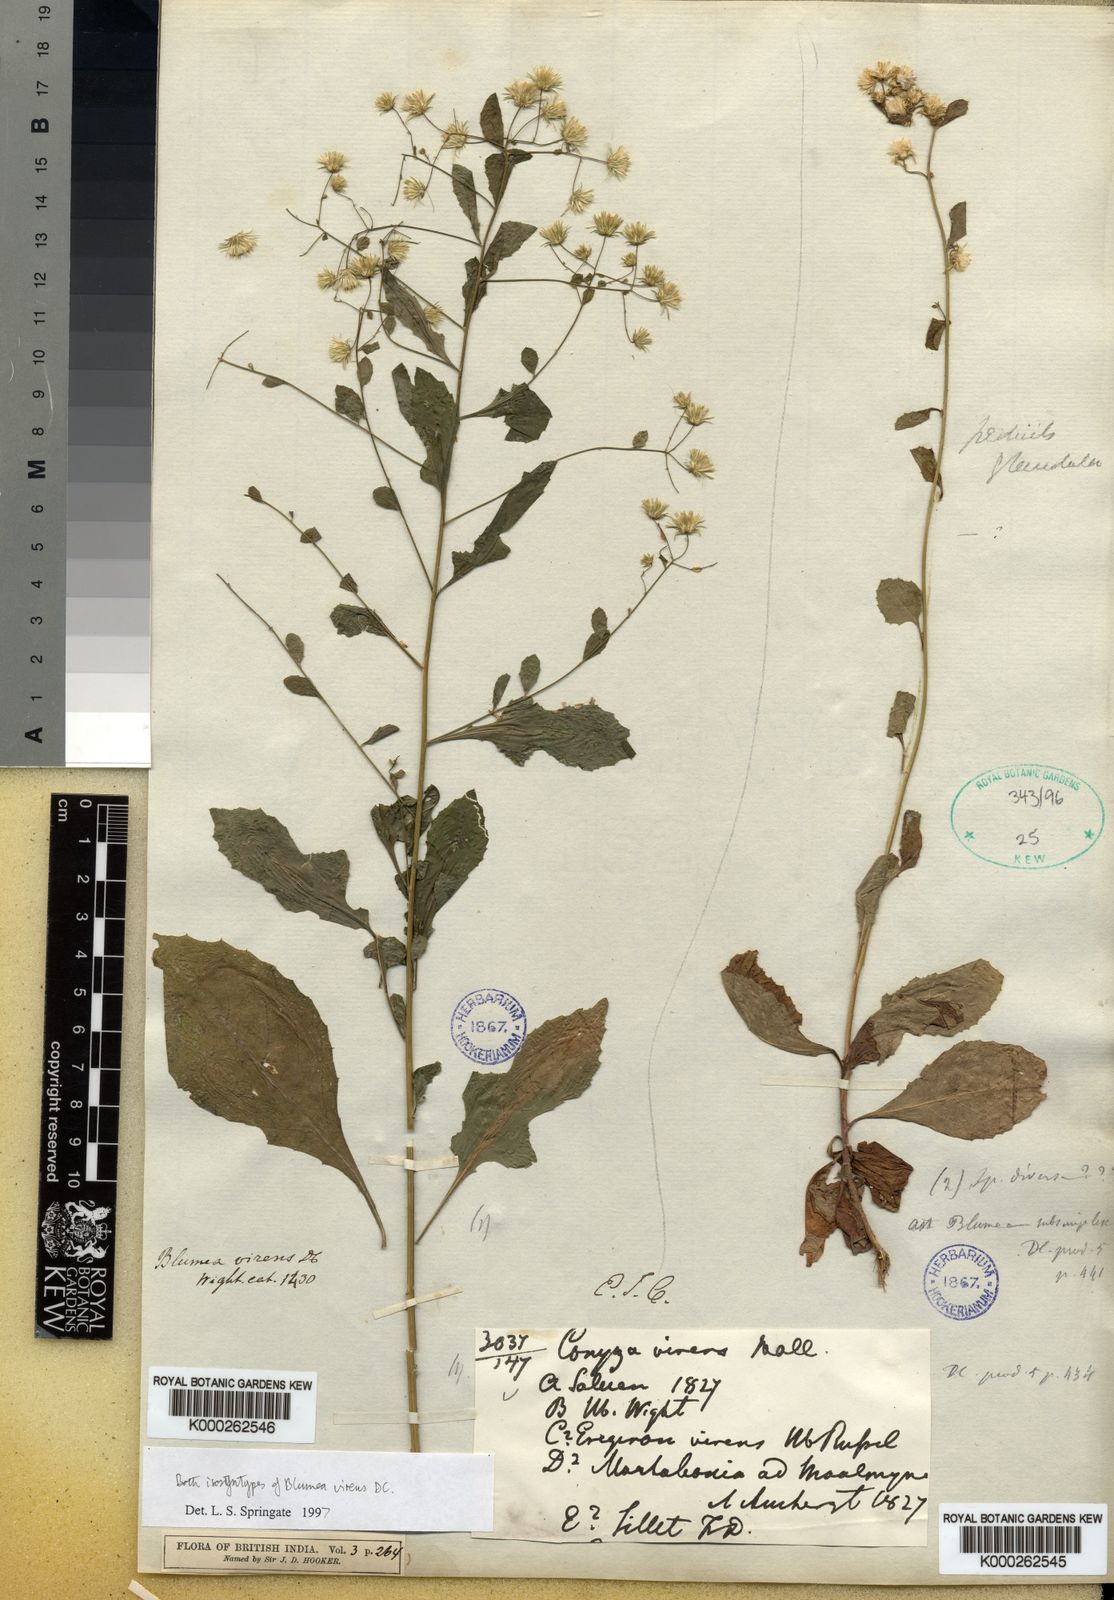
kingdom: Plantae
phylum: Tracheophyta
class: Magnoliopsida
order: Asterales
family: Asteraceae
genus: Blumea
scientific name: Blumea virens
